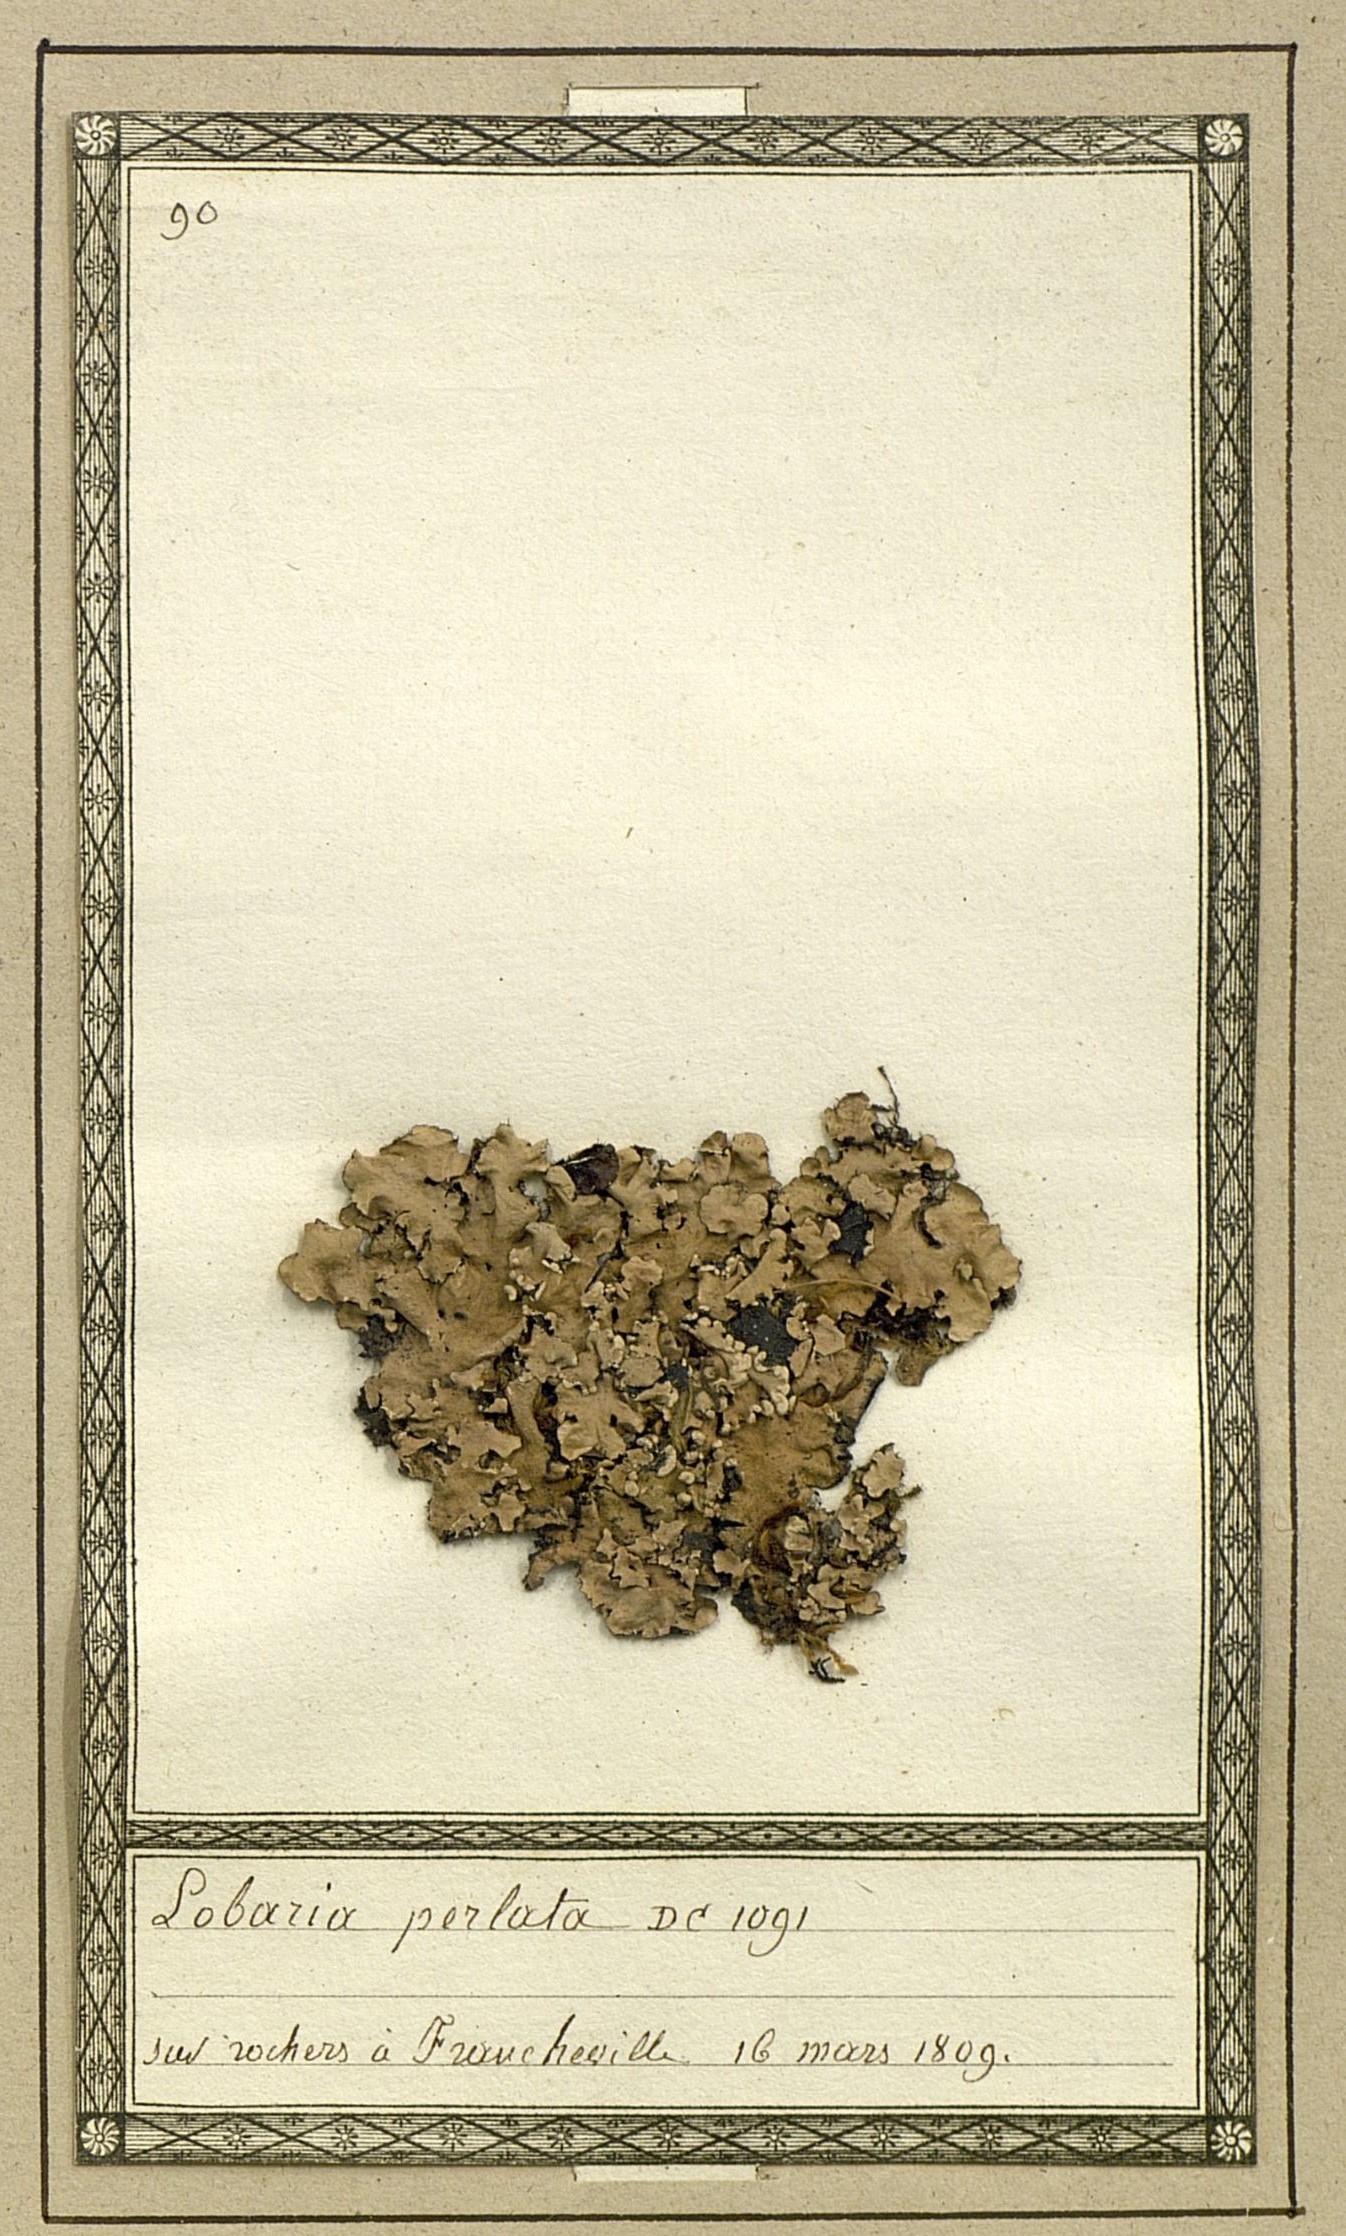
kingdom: Fungi
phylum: Ascomycota
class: Lecanoromycetes
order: Lecanorales
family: Parmeliaceae
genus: Parmotrema
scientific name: Parmotrema perlatum
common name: Black stone flower
